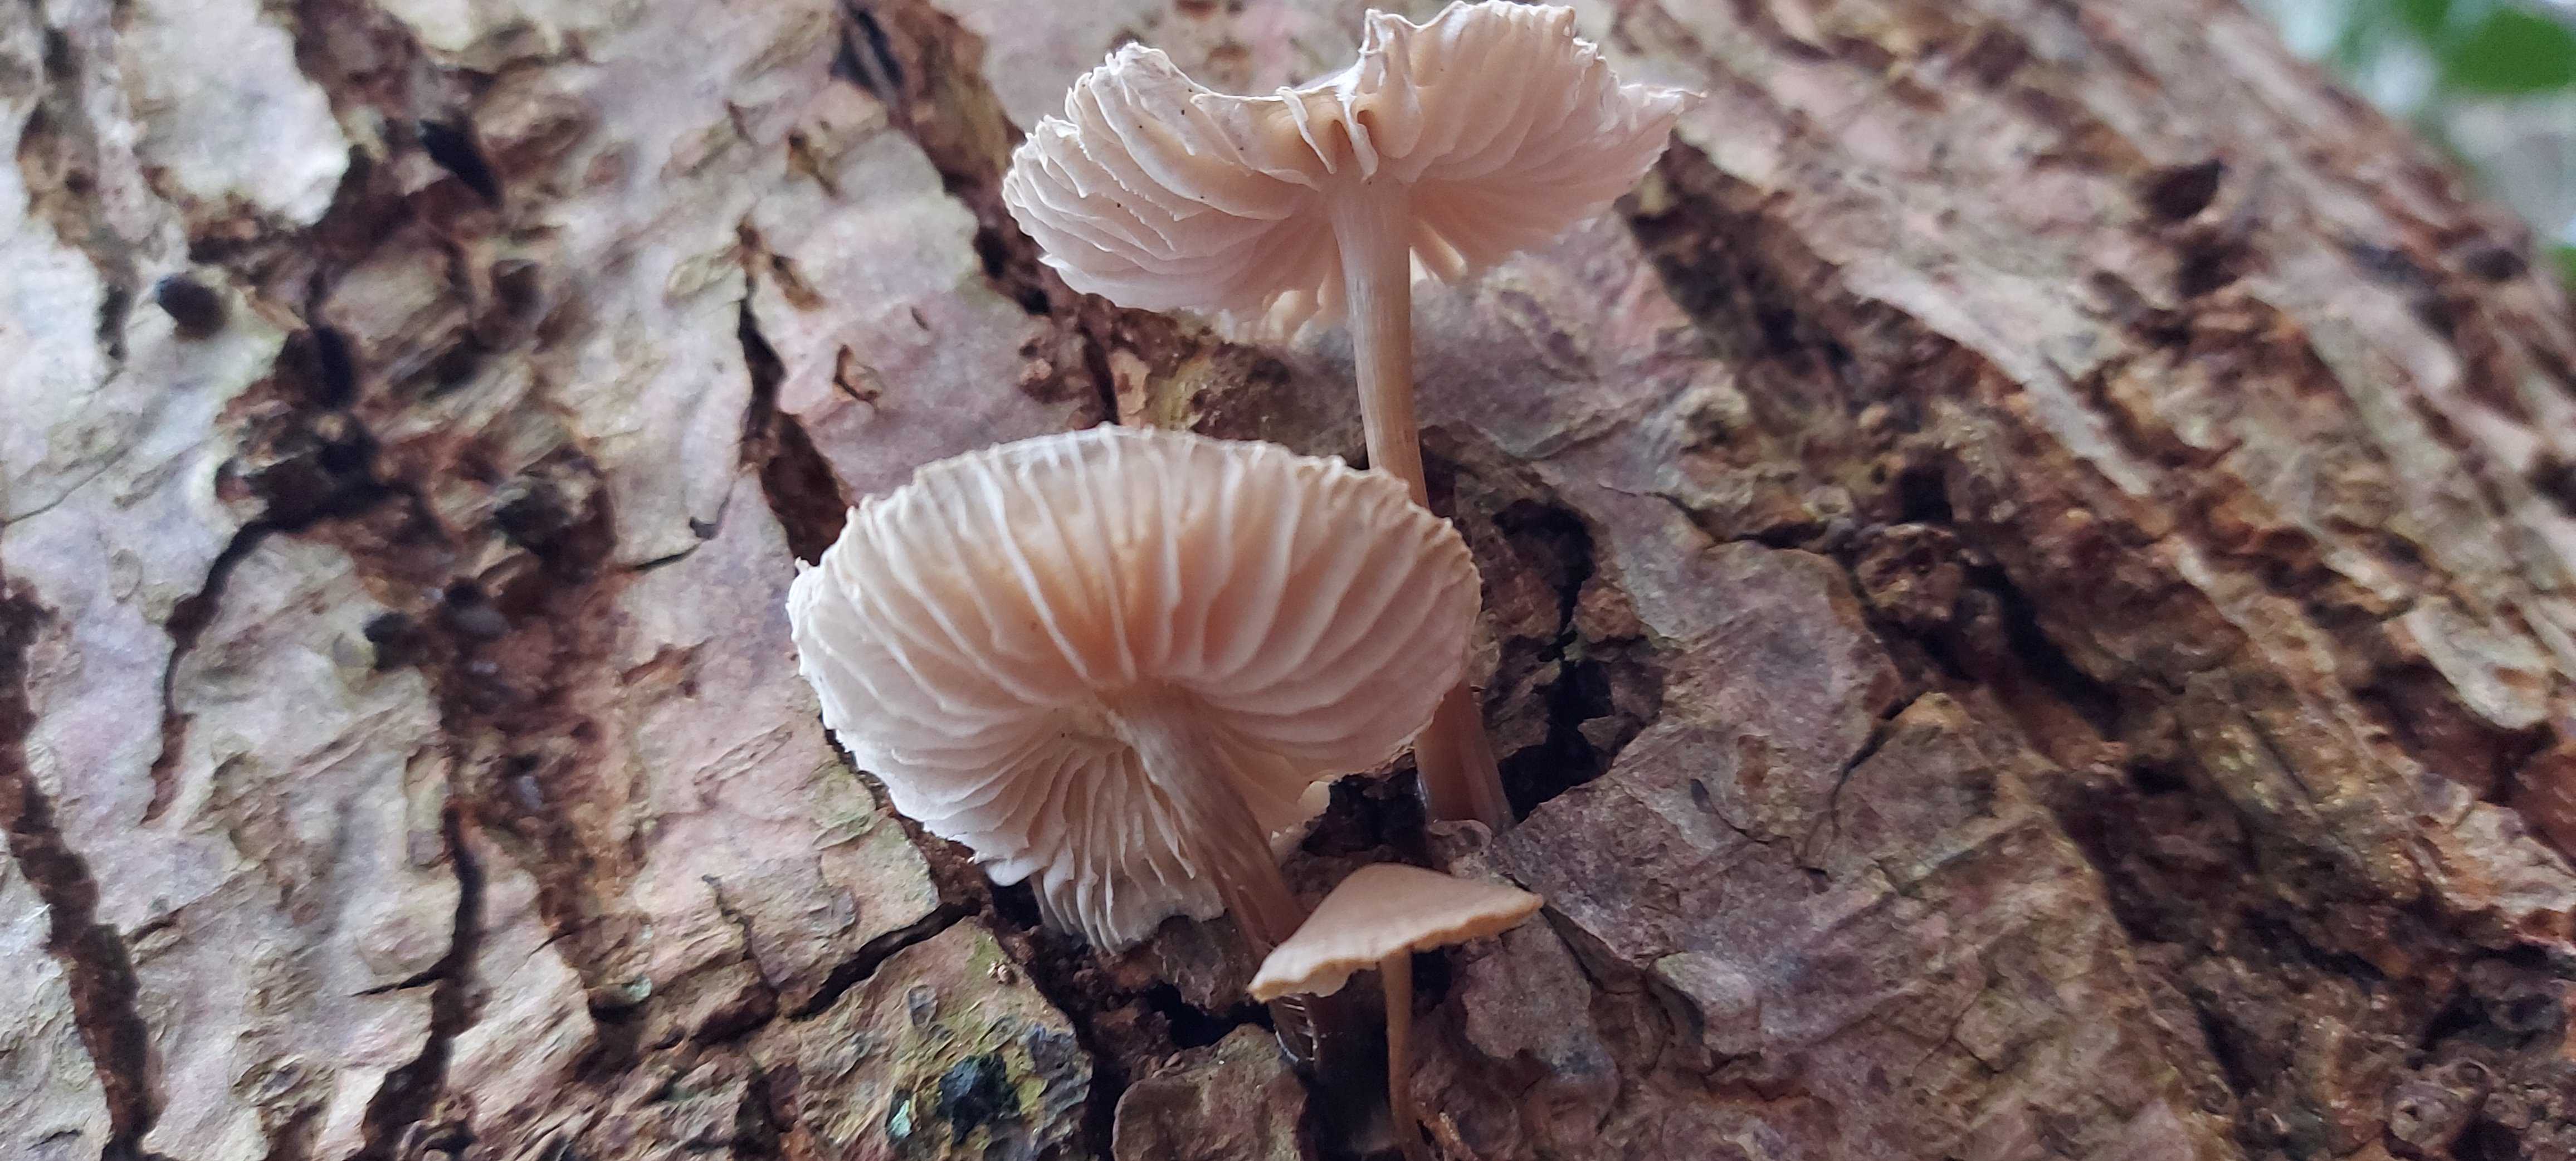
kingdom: Fungi
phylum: Basidiomycota
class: Agaricomycetes
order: Agaricales
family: Mycenaceae
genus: Mycena
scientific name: Mycena galericulata
